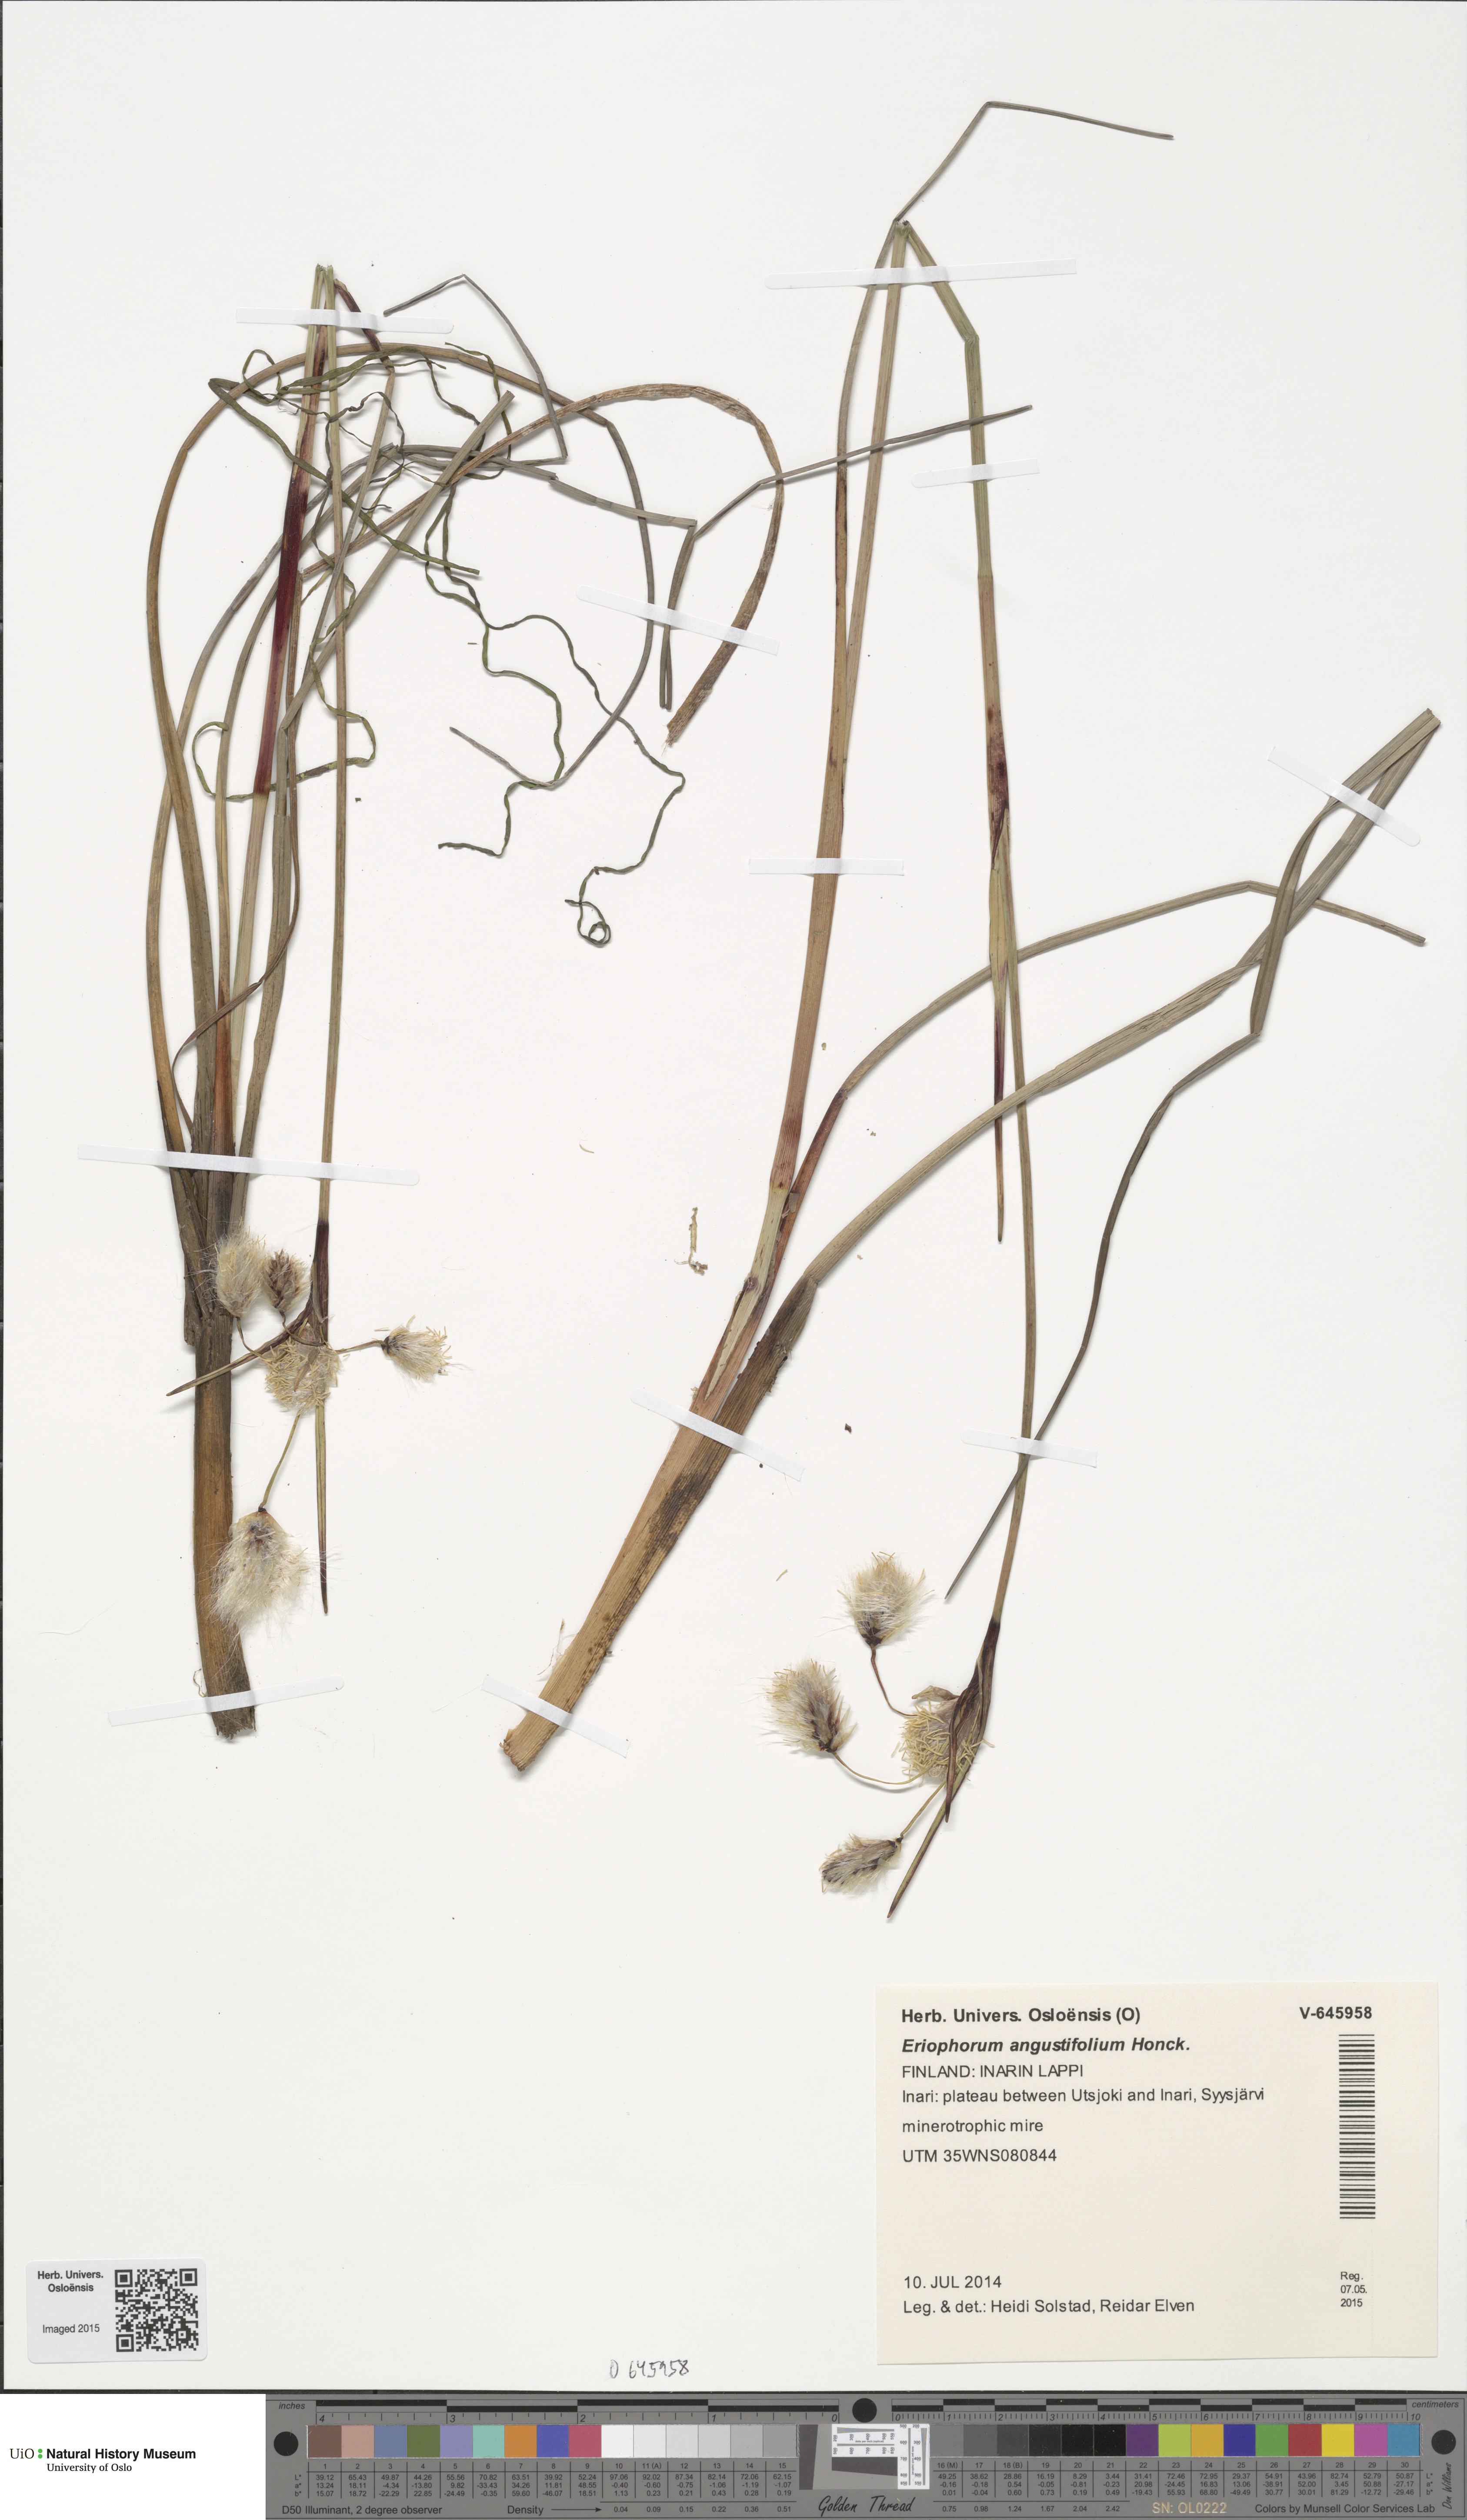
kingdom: Plantae
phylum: Tracheophyta
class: Liliopsida
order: Poales
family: Cyperaceae
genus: Eriophorum
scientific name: Eriophorum angustifolium
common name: Common cottongrass
